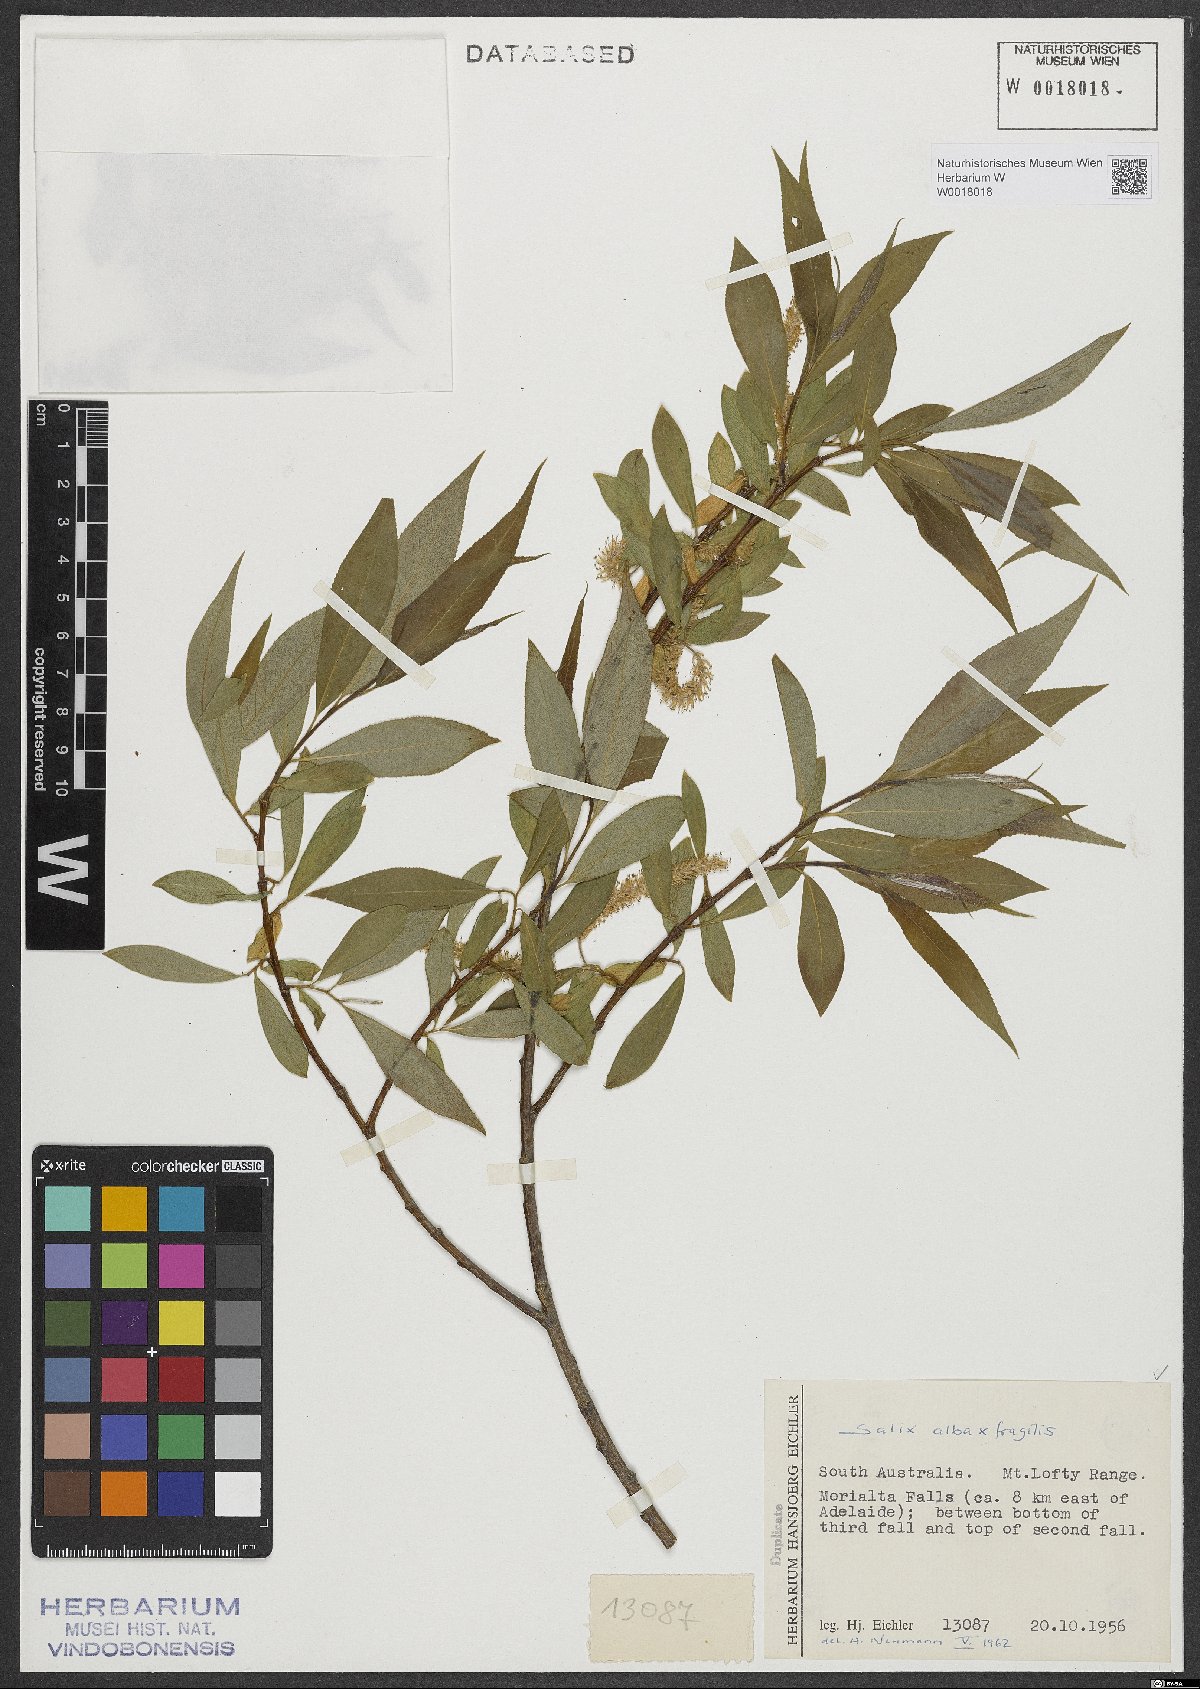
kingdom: Plantae
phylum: Tracheophyta
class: Magnoliopsida
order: Malpighiales
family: Salicaceae
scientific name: Salicaceae
